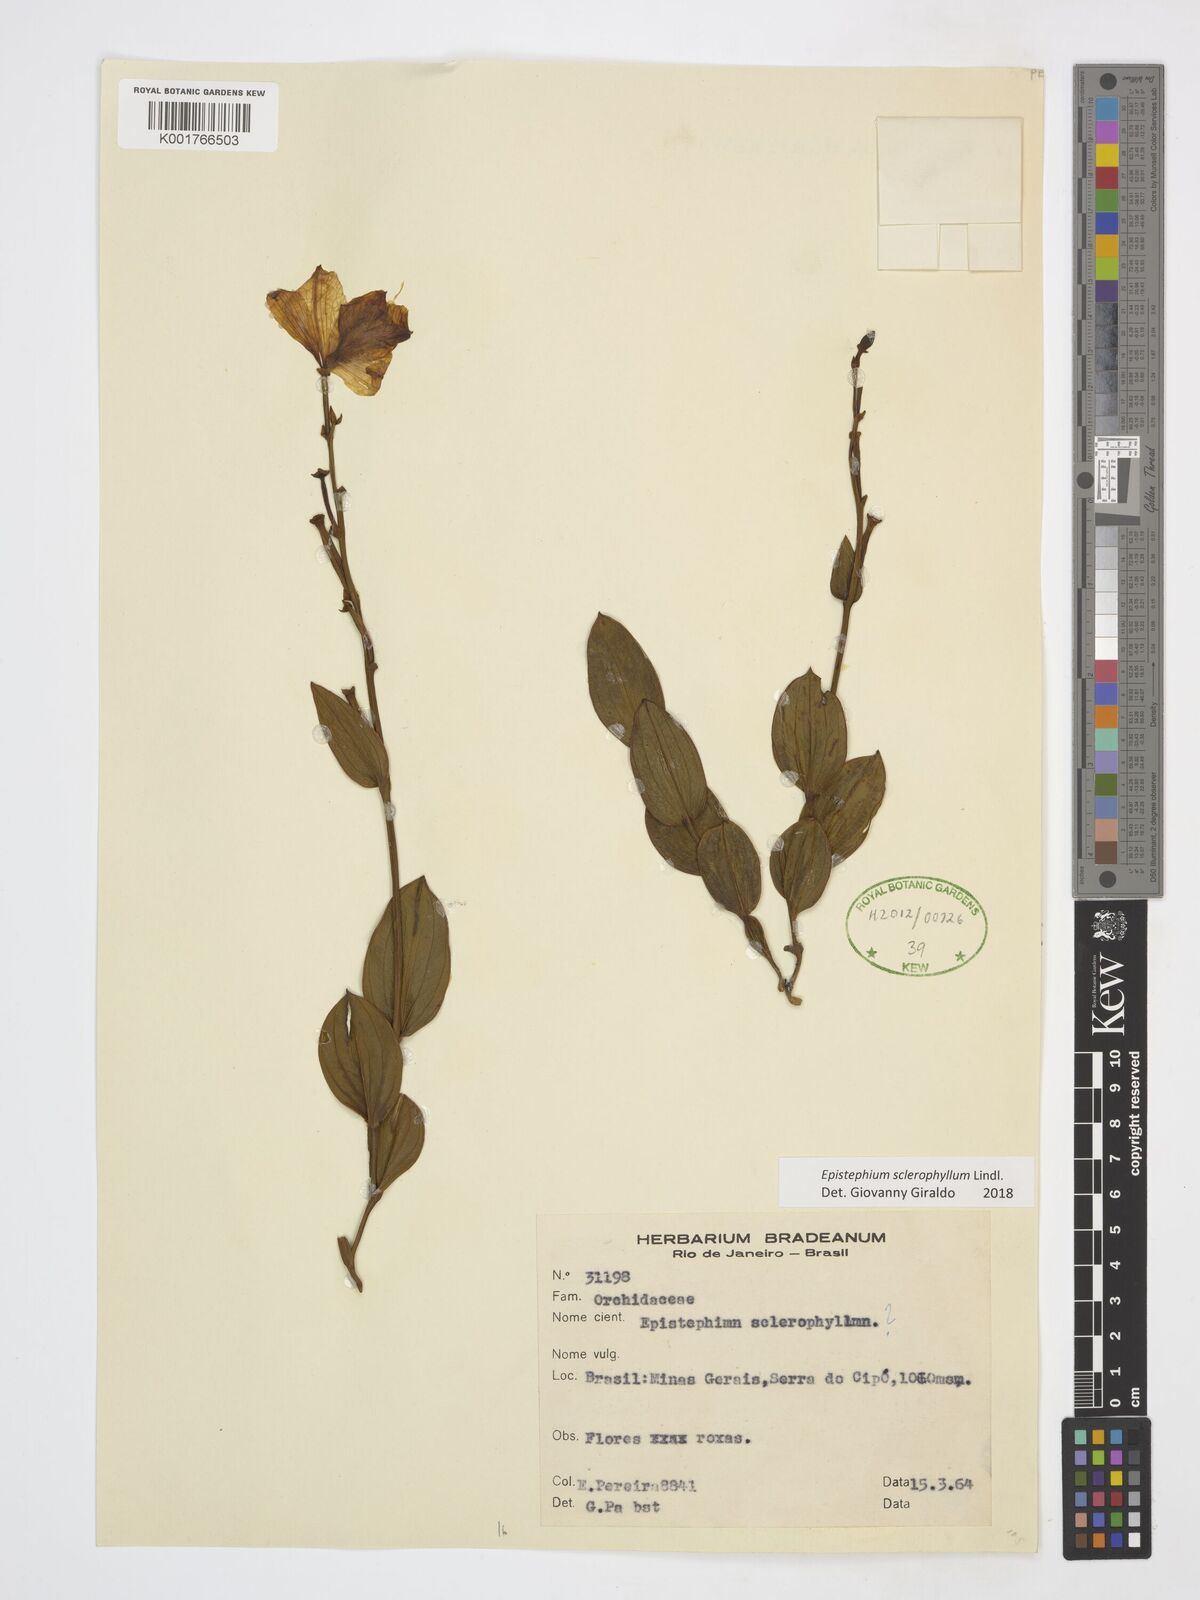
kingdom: Plantae
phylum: Tracheophyta
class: Liliopsida
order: Asparagales
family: Orchidaceae
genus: Epistephium
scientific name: Epistephium sclerophyllum
